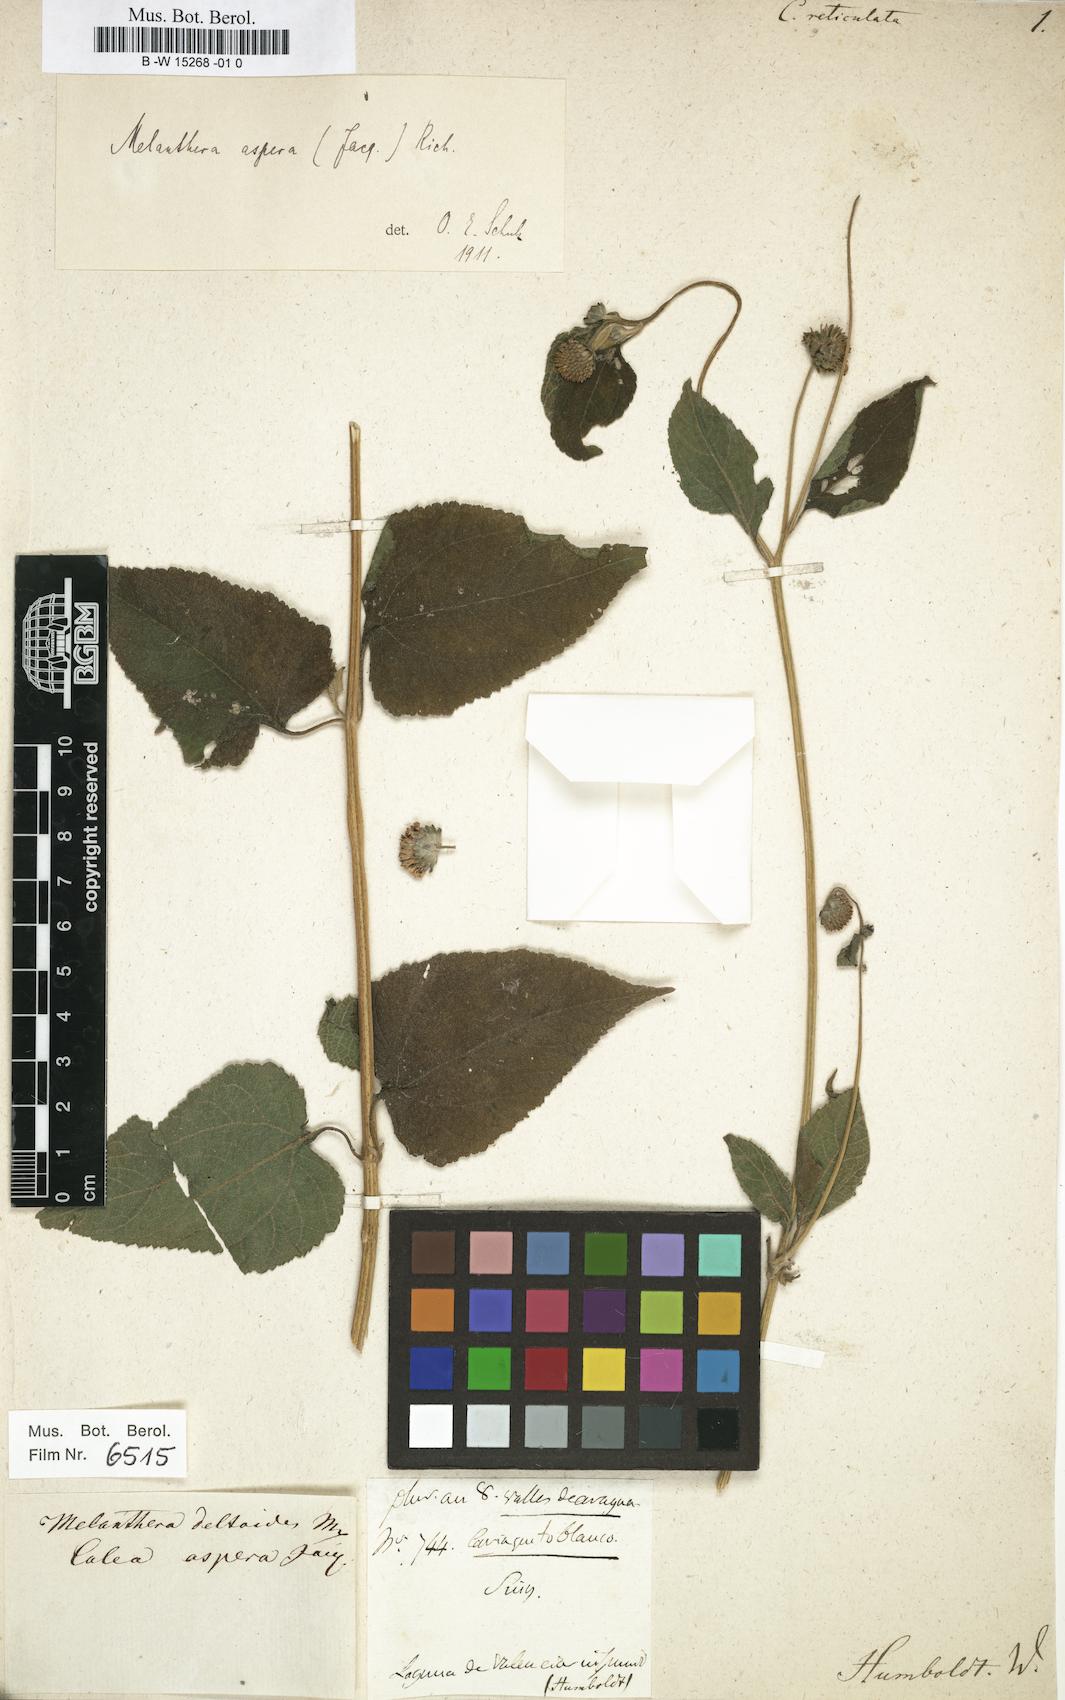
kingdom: Plantae
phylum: Tracheophyta
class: Magnoliopsida
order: Asterales
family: Asteraceae
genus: Calea
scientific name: Calea reticulata
